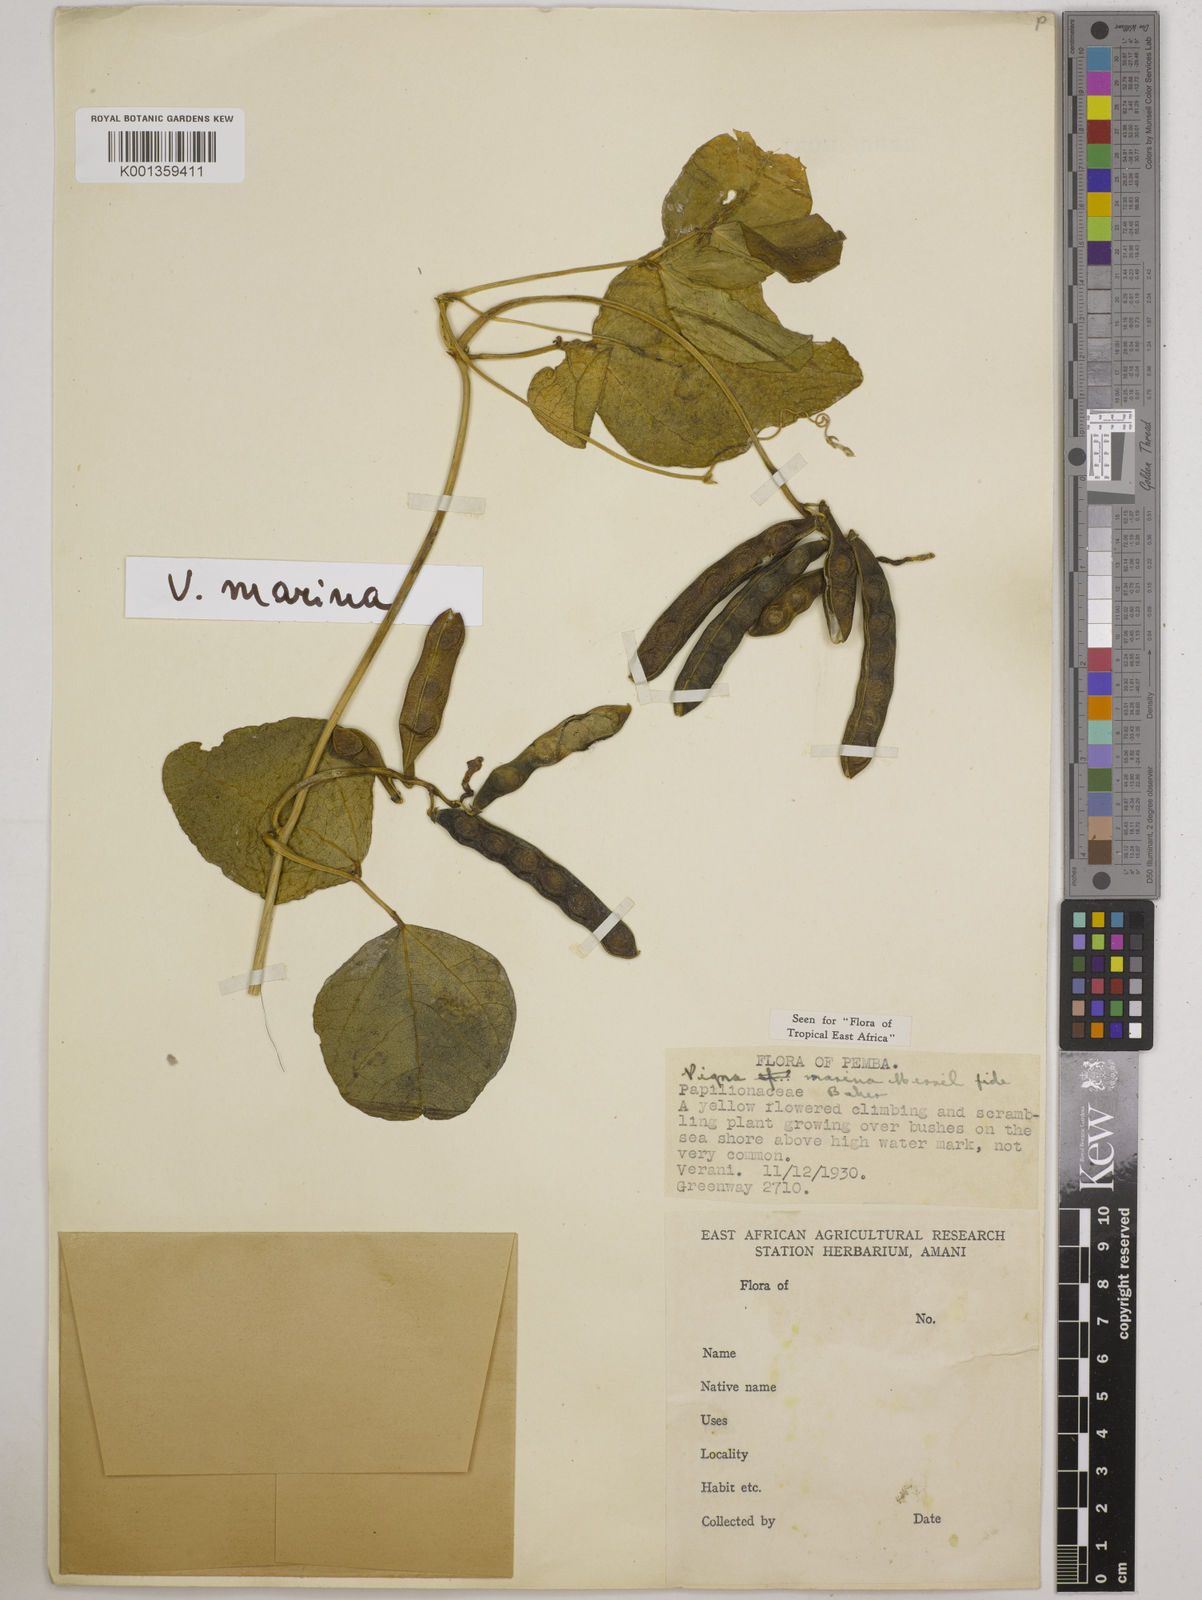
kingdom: Plantae
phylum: Tracheophyta
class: Magnoliopsida
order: Fabales
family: Fabaceae
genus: Vigna
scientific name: Vigna marina
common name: Dune-bean
